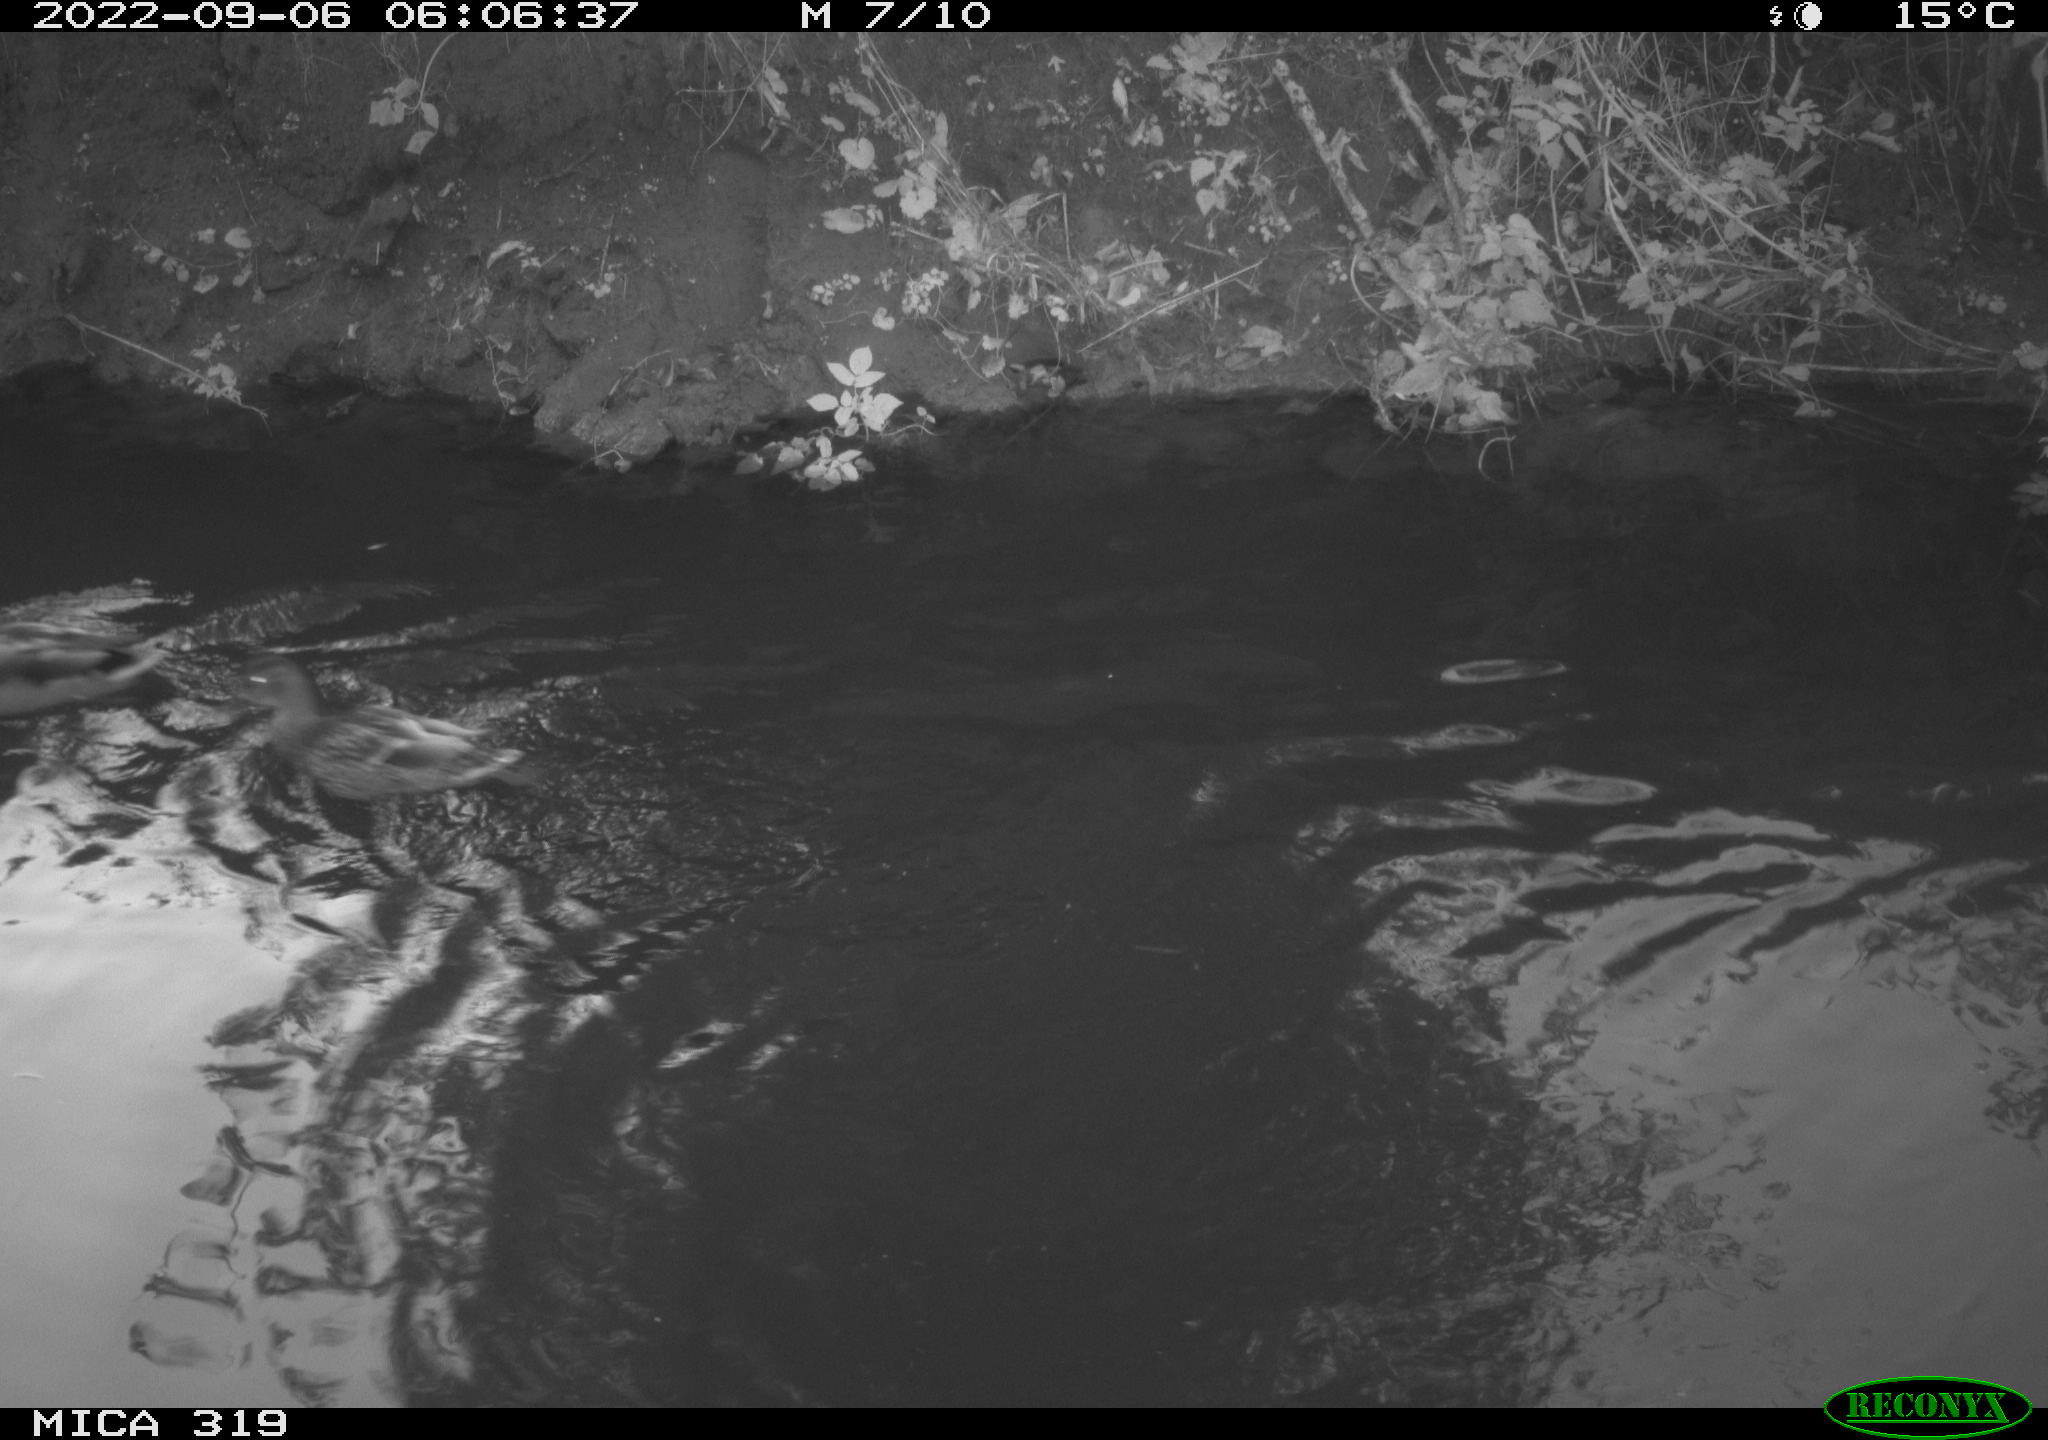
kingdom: Animalia
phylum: Chordata
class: Aves
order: Anseriformes
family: Anatidae
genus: Anas
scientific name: Anas
